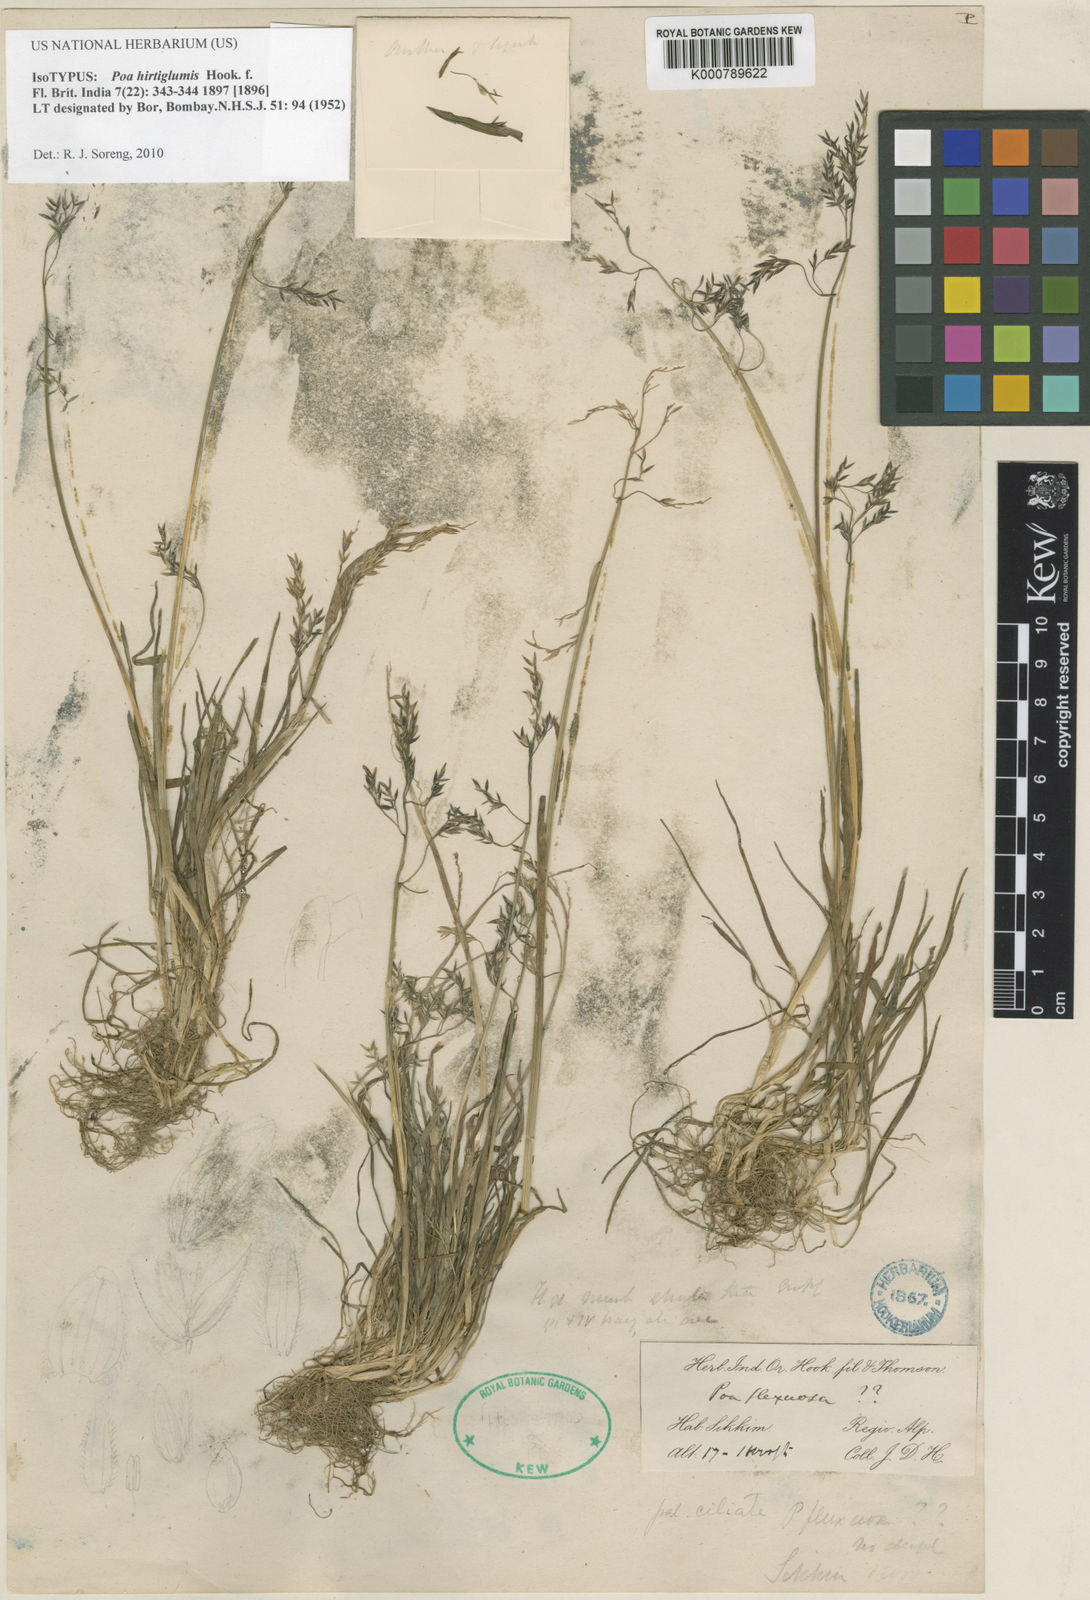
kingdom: Plantae
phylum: Tracheophyta
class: Liliopsida
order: Poales
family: Poaceae
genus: Poa
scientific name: Poa hirtiglumis
